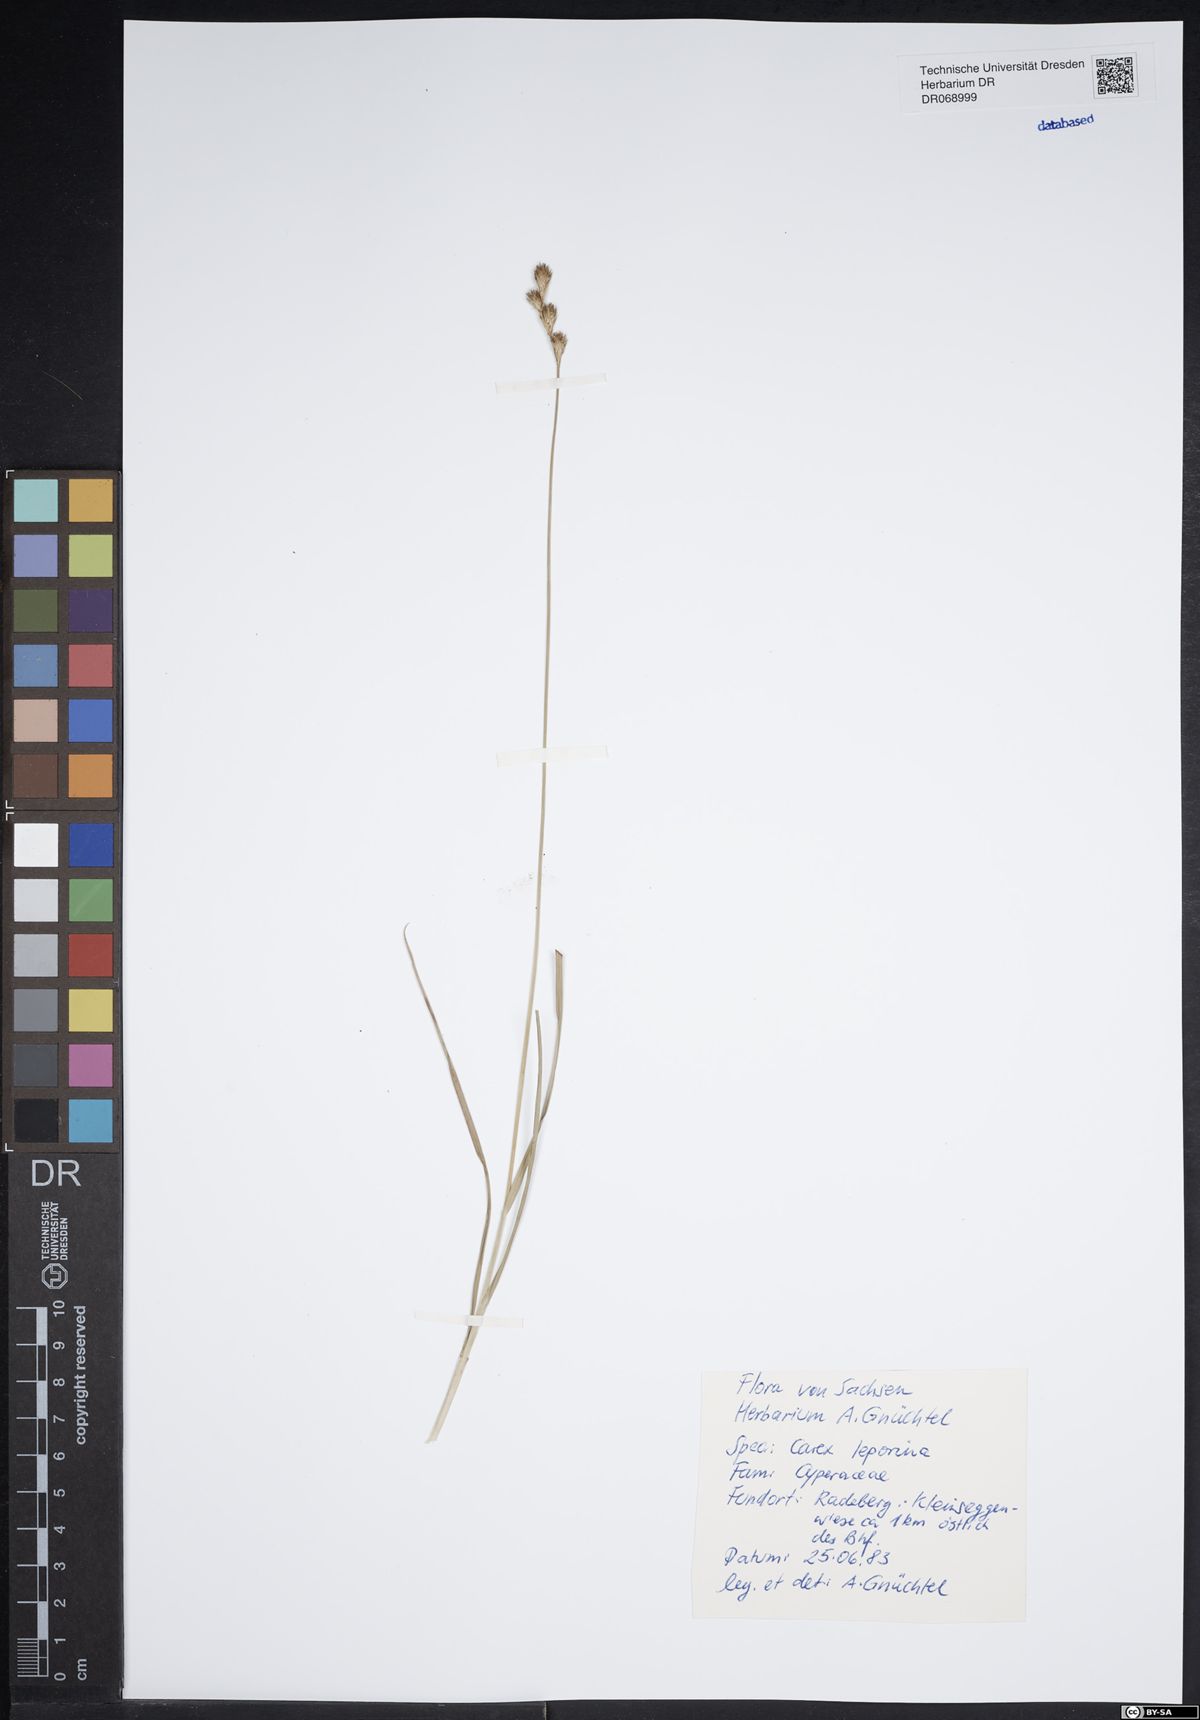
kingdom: Plantae
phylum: Tracheophyta
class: Liliopsida
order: Poales
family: Cyperaceae
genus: Carex
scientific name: Carex leporina
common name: Oval sedge
